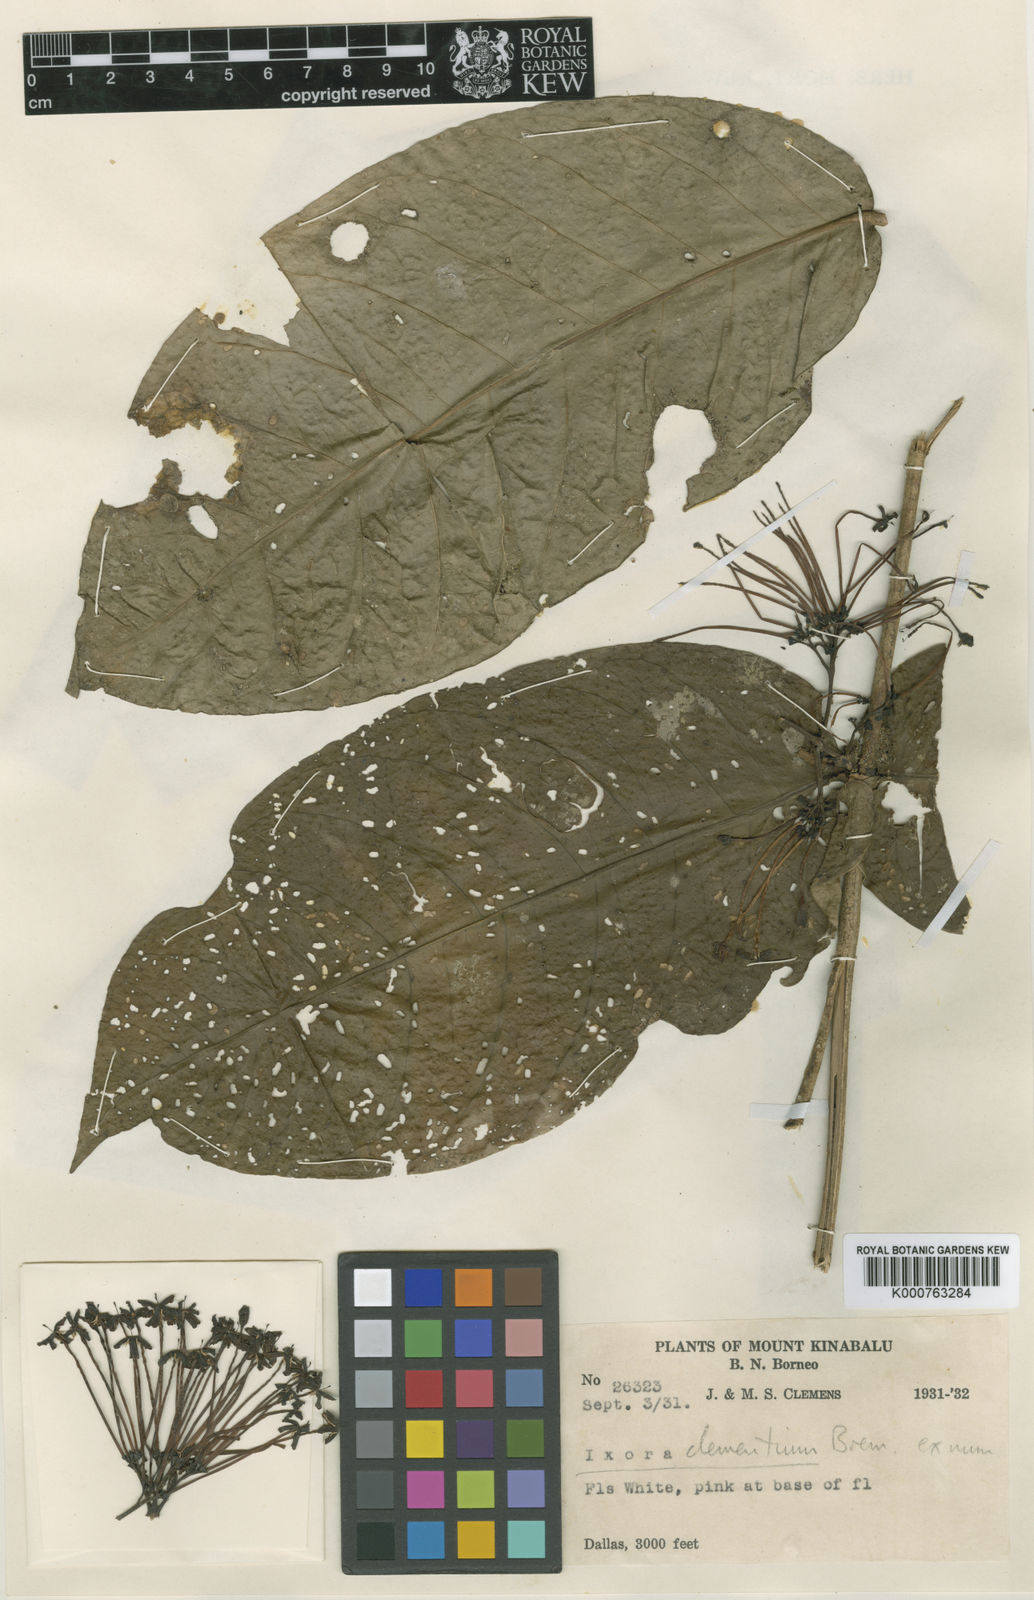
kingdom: Plantae
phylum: Tracheophyta
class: Magnoliopsida
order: Gentianales
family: Rubiaceae
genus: Ixora
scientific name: Ixora clementium
